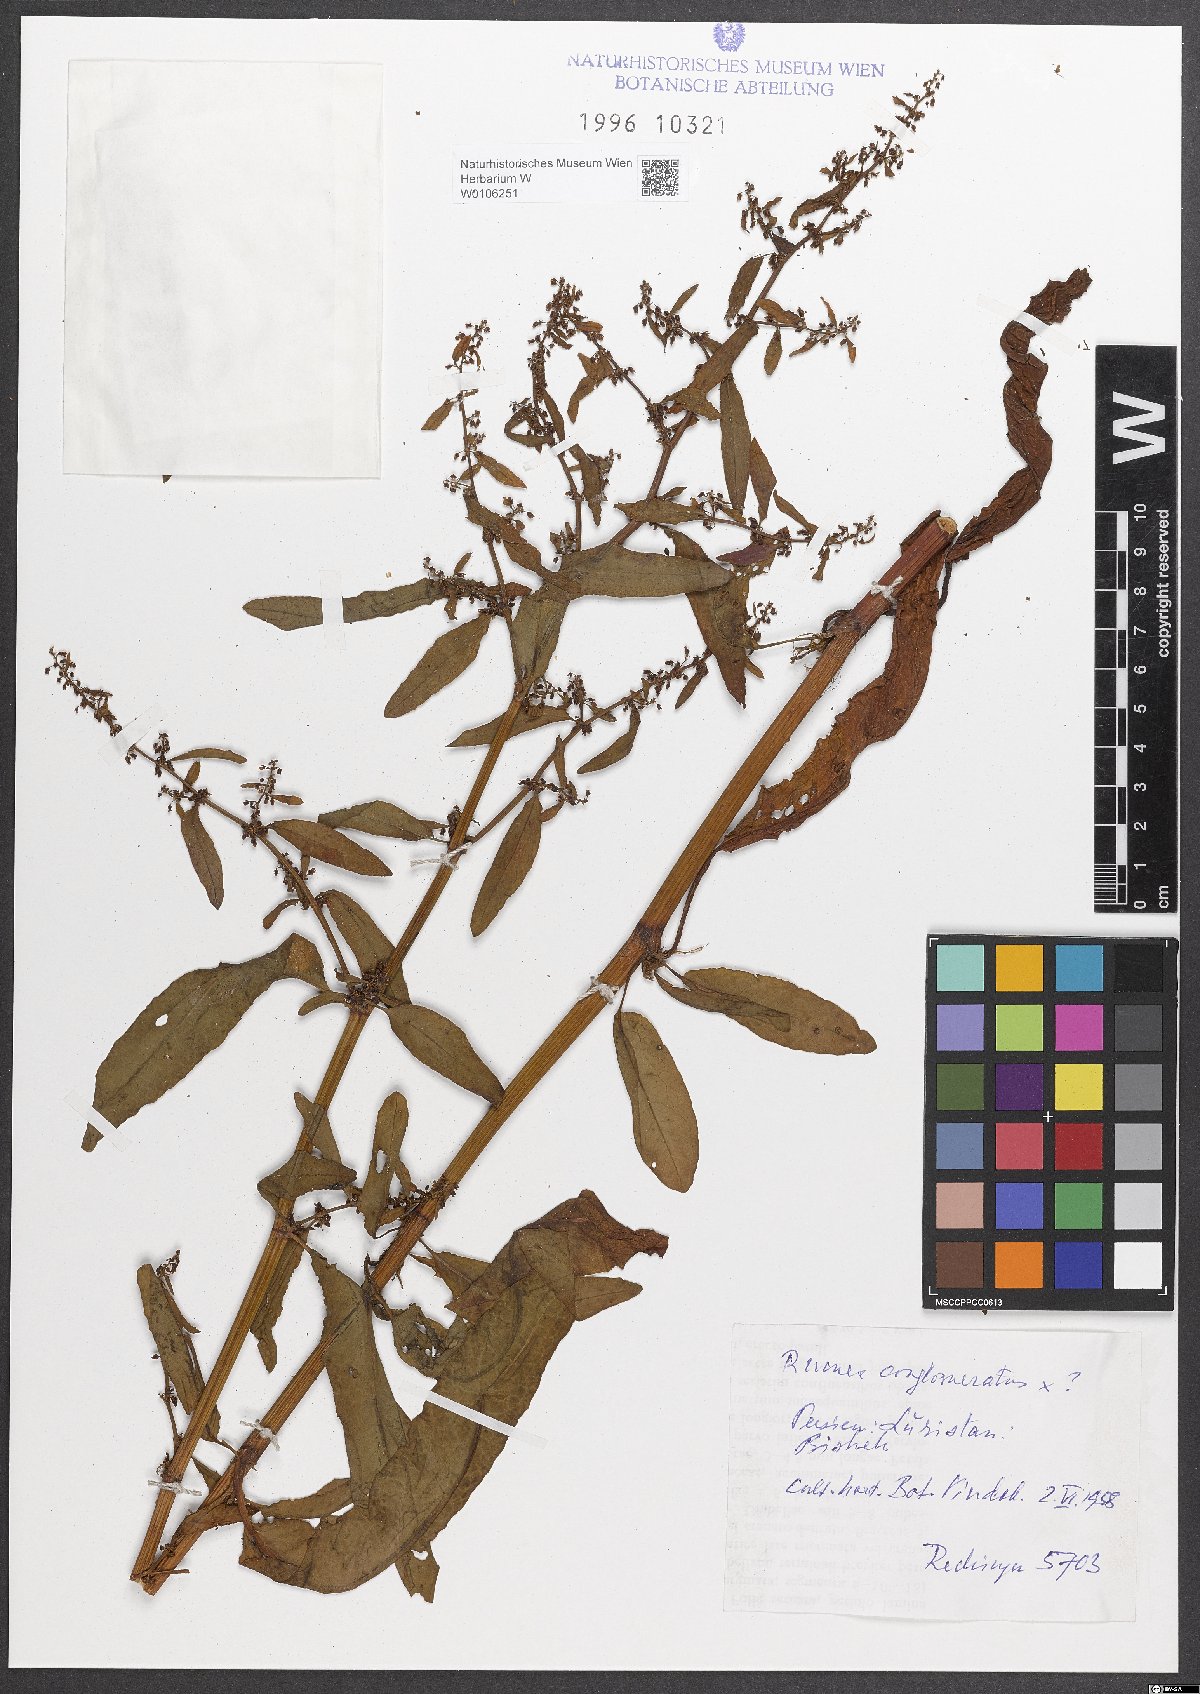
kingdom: Plantae
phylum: Tracheophyta
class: Magnoliopsida
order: Caryophyllales
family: Polygonaceae
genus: Rumex
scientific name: Rumex conglomeratus
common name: Clustered dock
